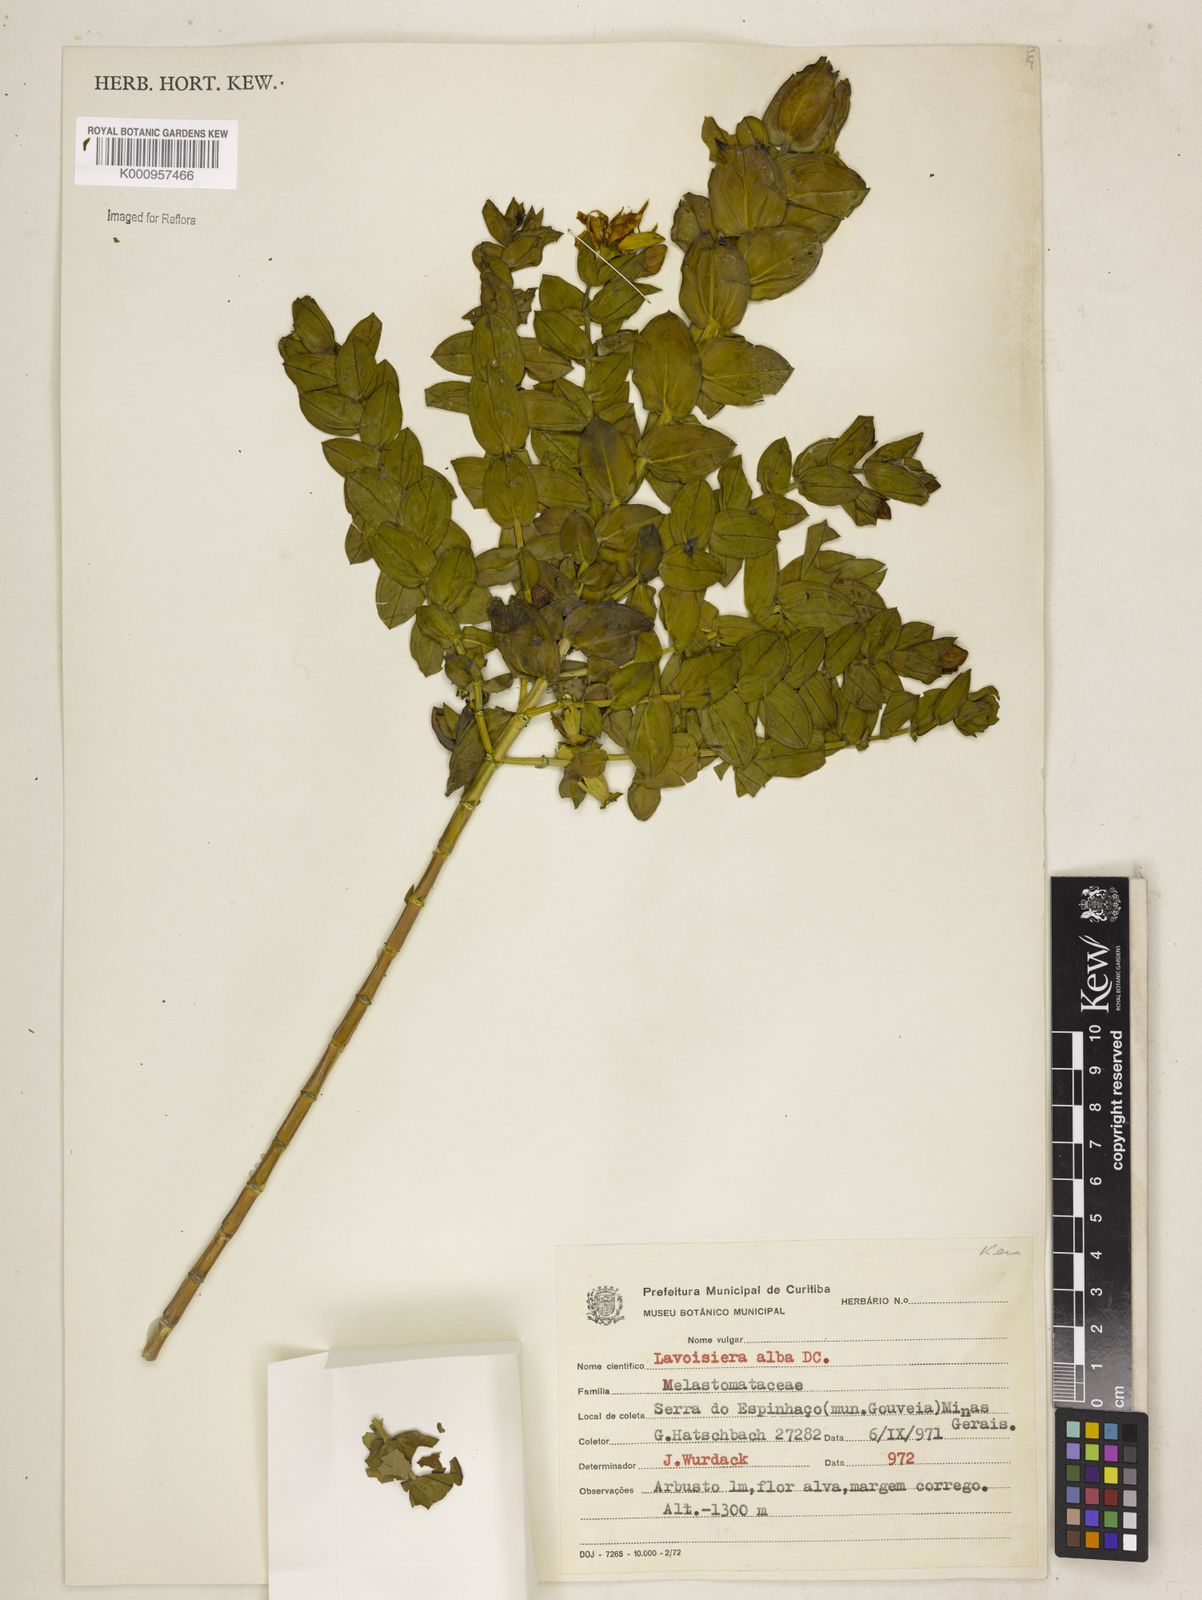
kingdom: Plantae
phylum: Tracheophyta
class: Magnoliopsida
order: Myrtales
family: Melastomataceae
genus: Microlicia
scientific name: Microlicia alba
